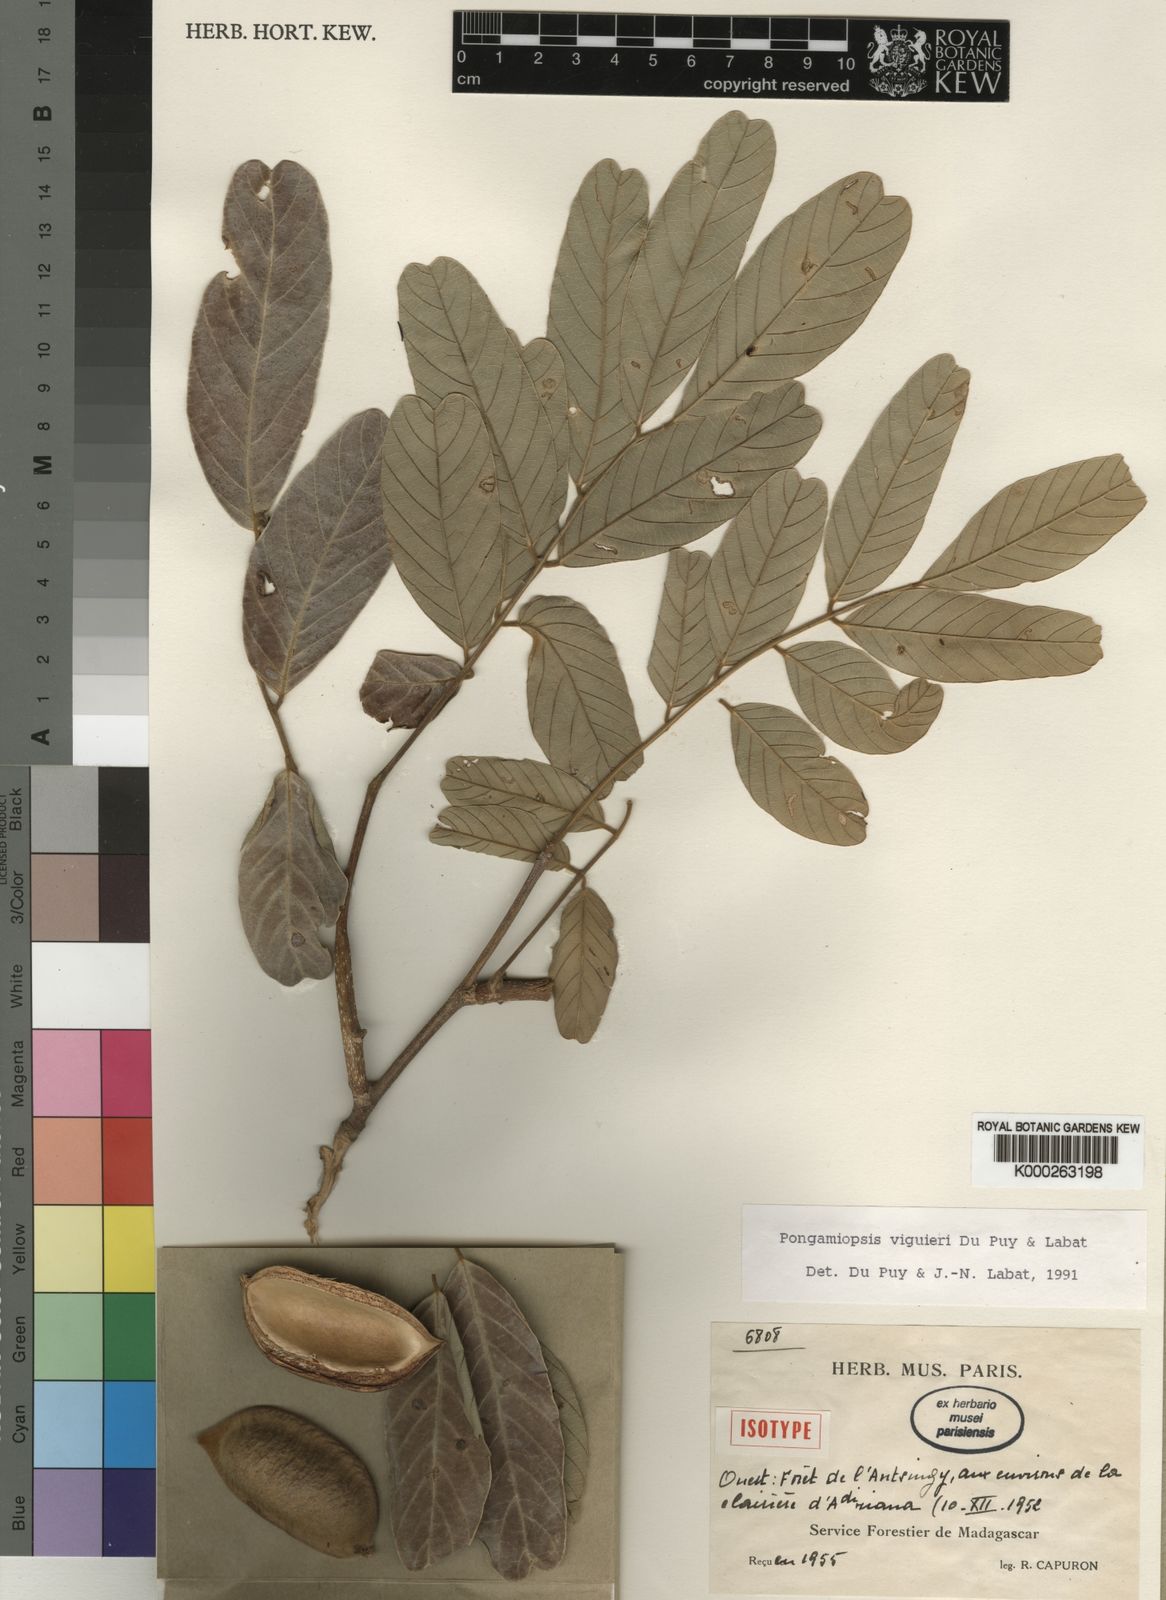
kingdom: Plantae
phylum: Tracheophyta
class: Magnoliopsida
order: Fabales
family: Fabaceae
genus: Pongamiopsis
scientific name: Pongamiopsis viguieri
